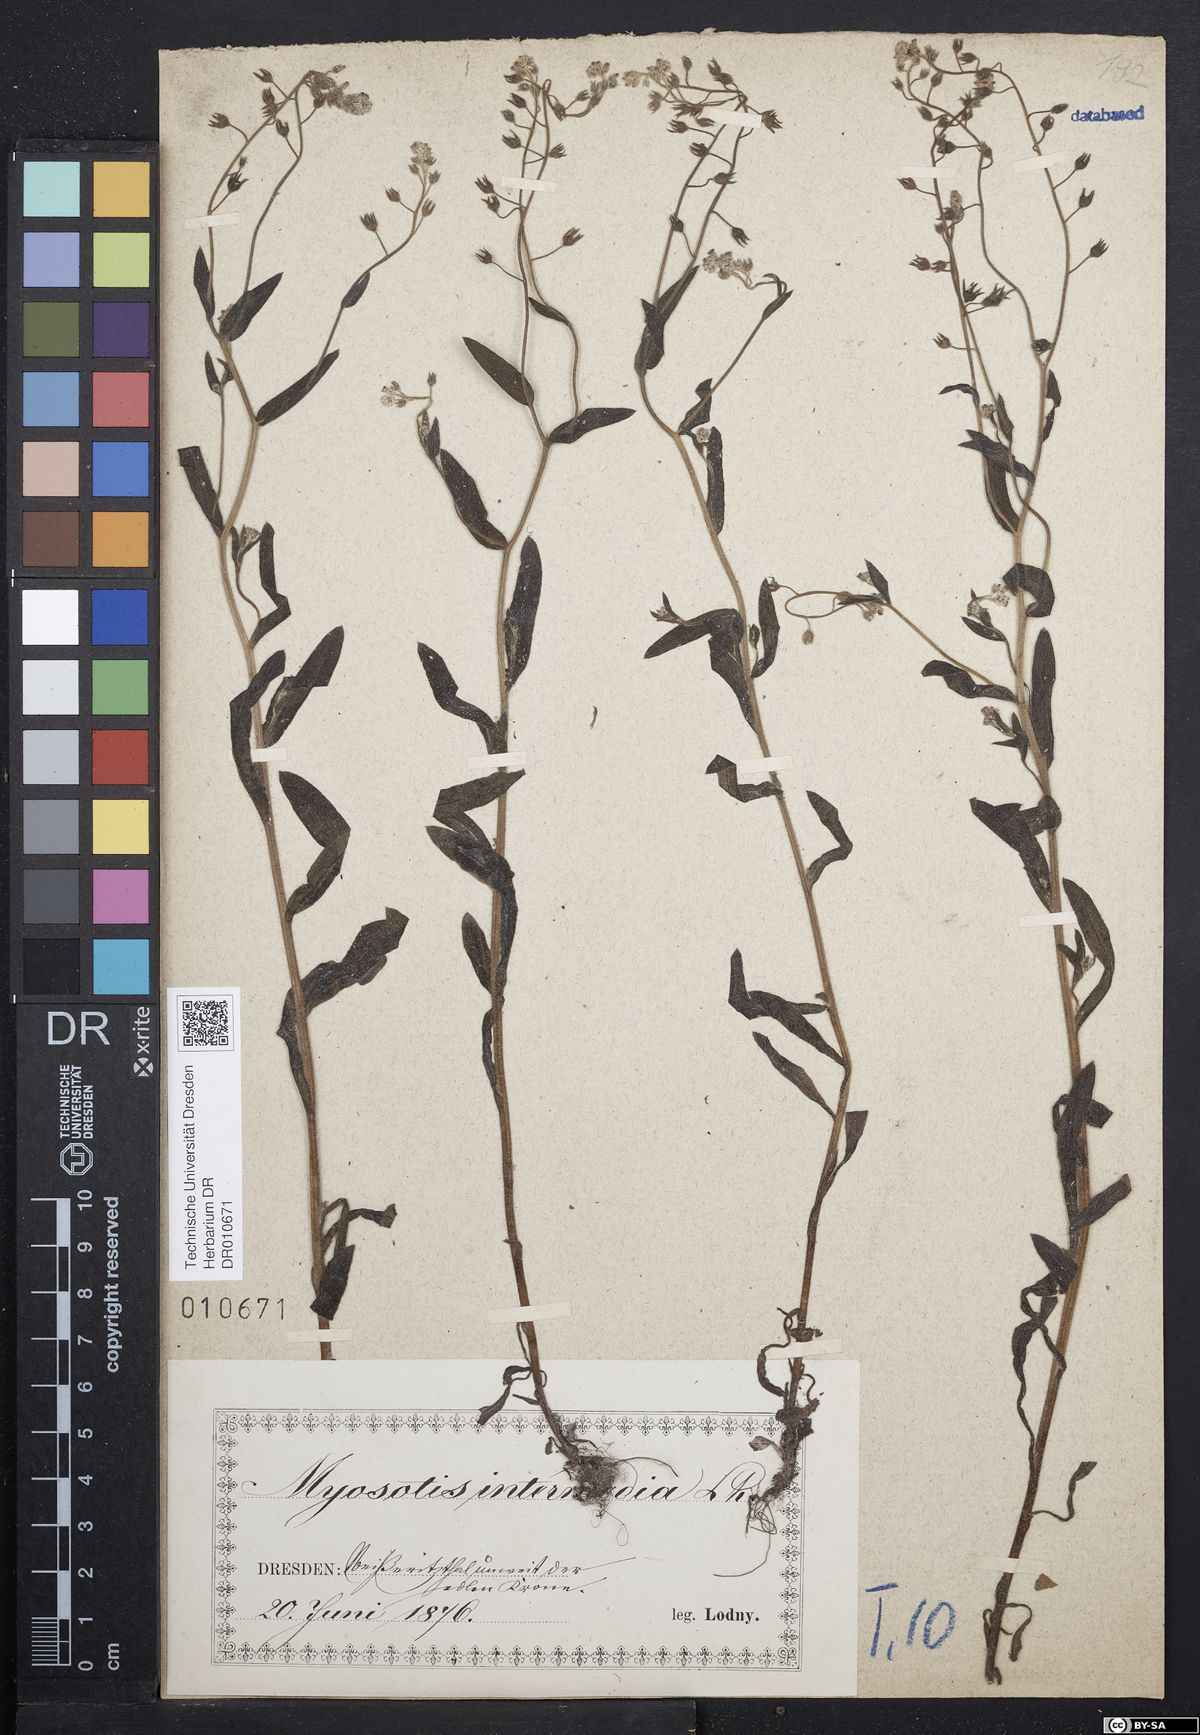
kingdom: Plantae
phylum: Tracheophyta
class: Magnoliopsida
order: Boraginales
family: Boraginaceae
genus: Myosotis
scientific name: Myosotis arvensis
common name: Field forget-me-not
